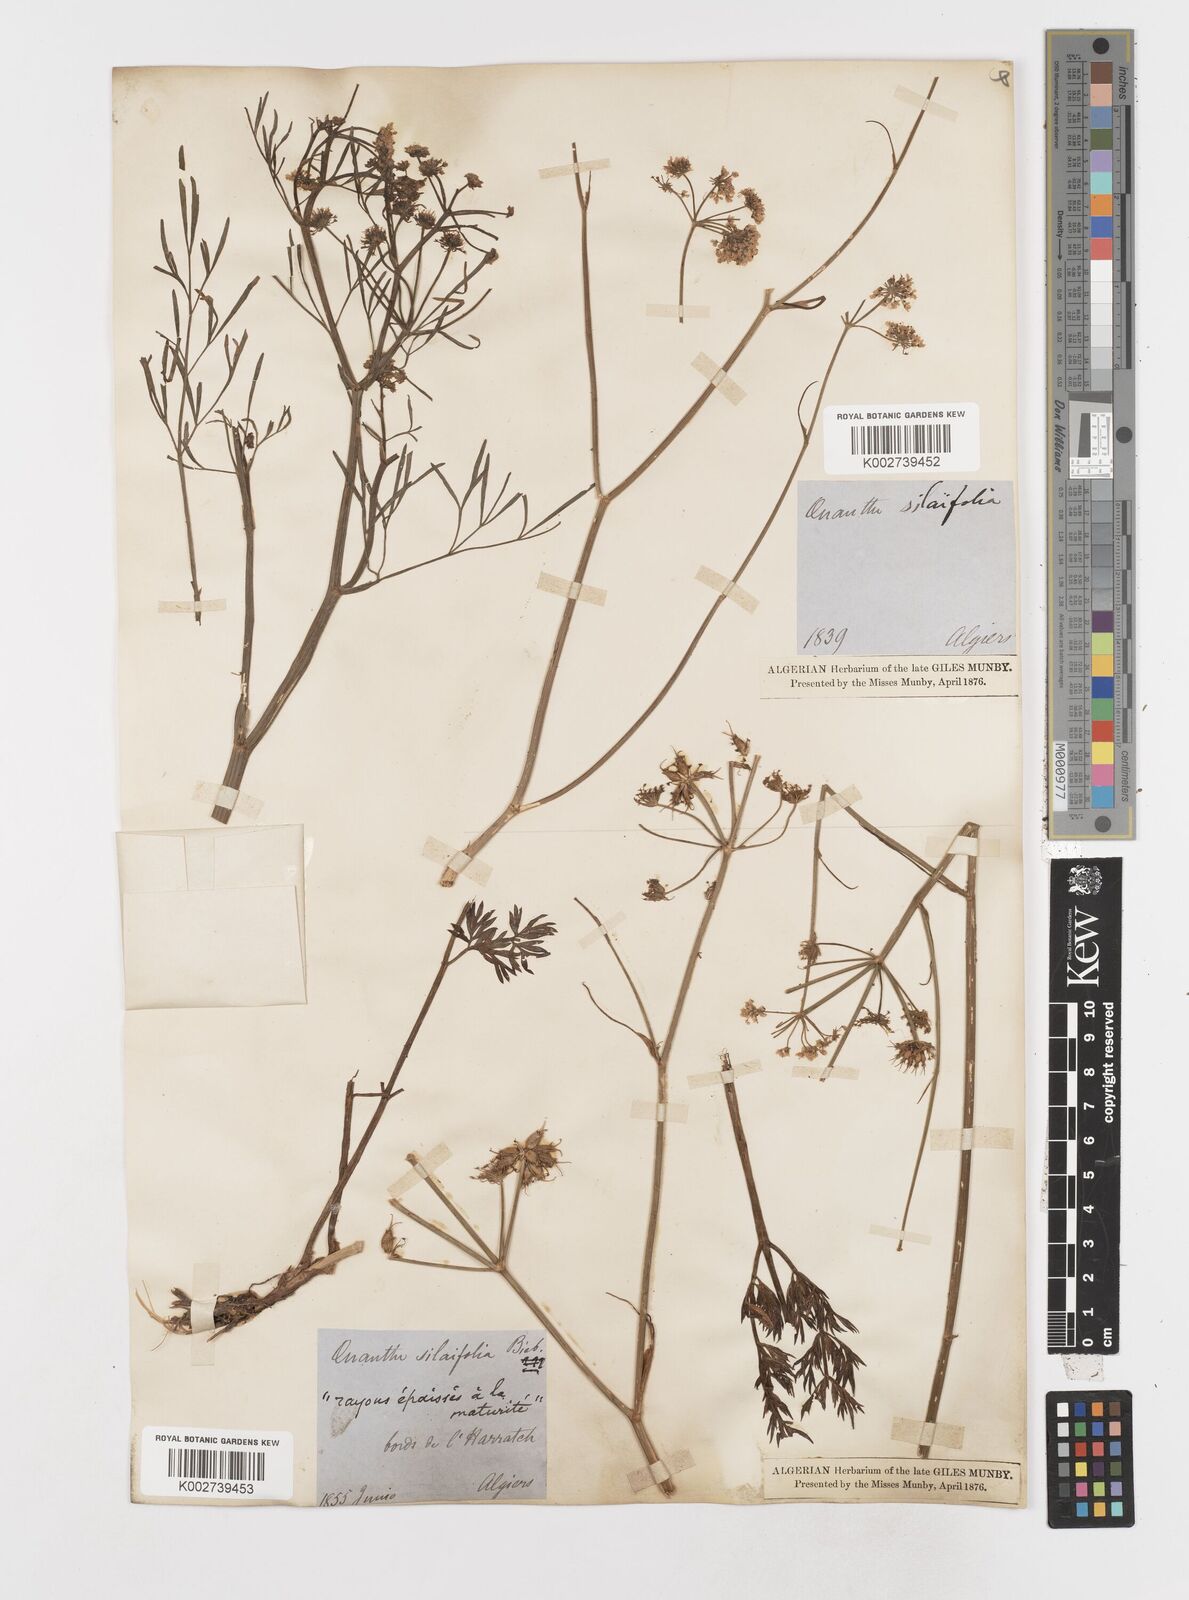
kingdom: Plantae
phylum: Tracheophyta
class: Magnoliopsida
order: Apiales
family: Apiaceae
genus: Oenanthe
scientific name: Oenanthe silaifolia
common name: Narrow-leaved water-dropwort
